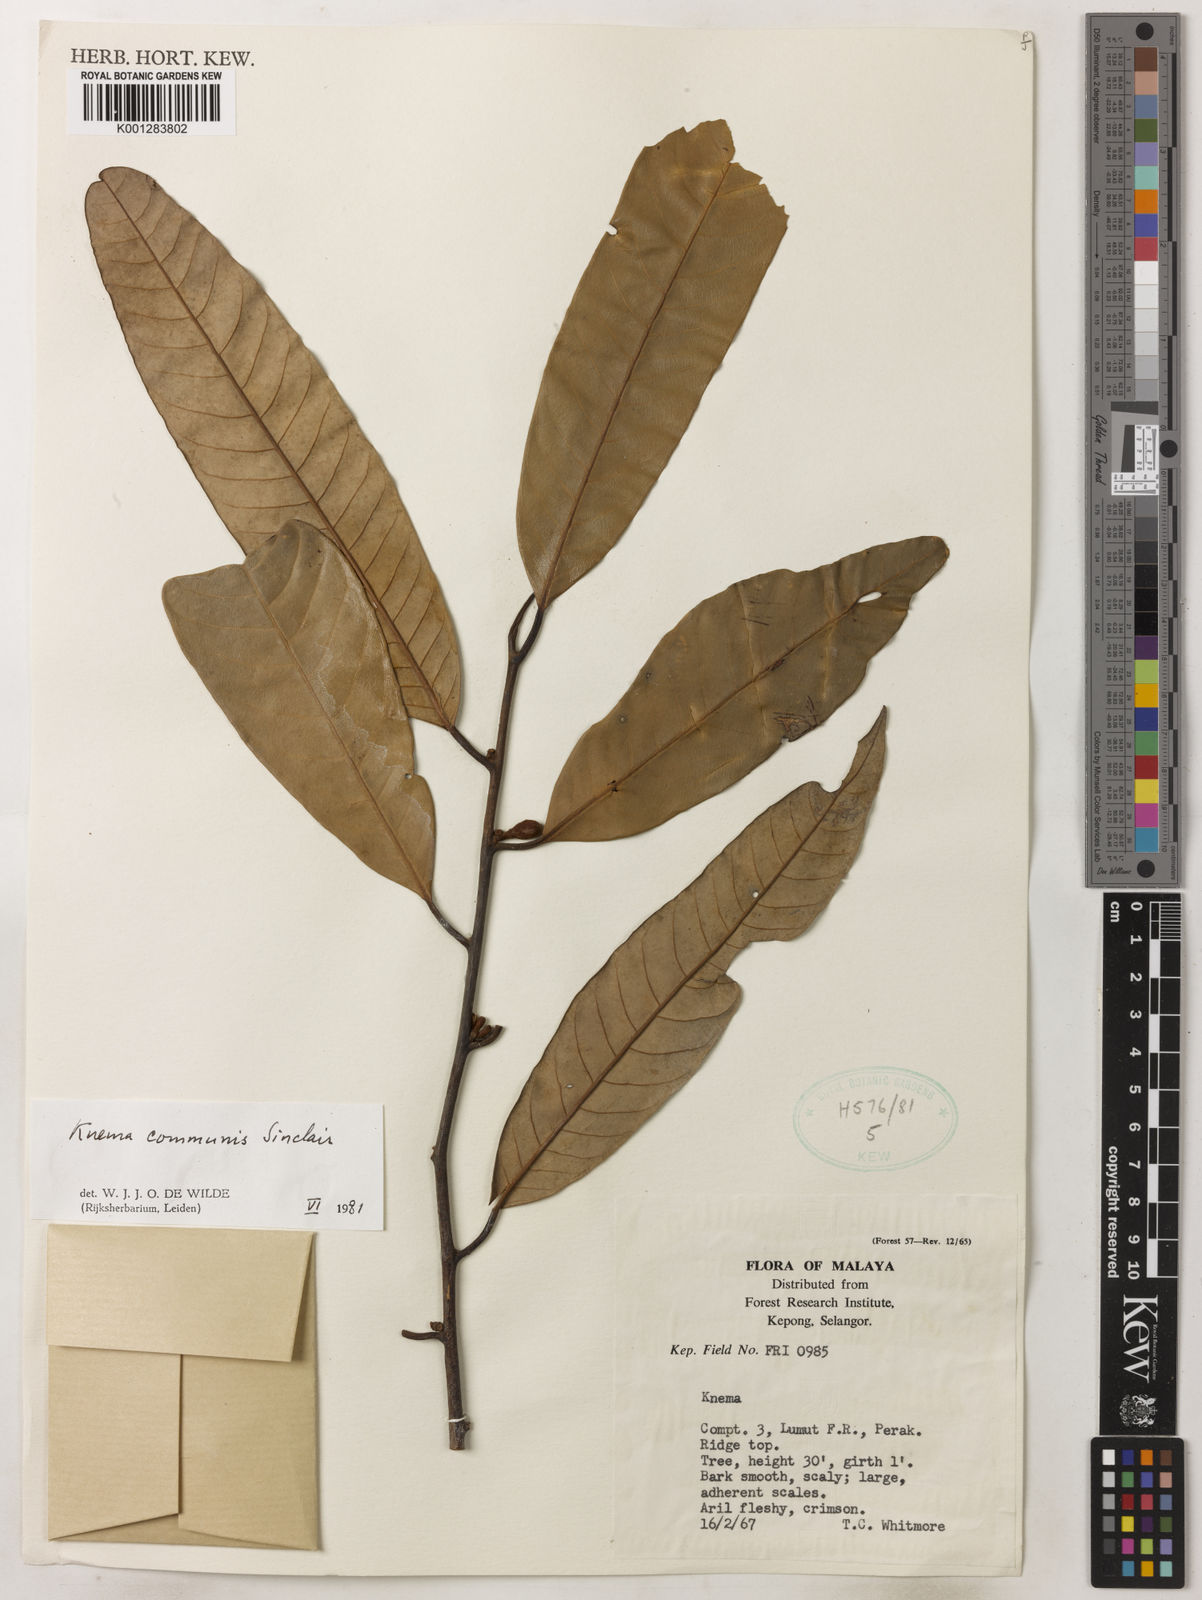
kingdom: Plantae
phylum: Tracheophyta
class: Magnoliopsida
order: Magnoliales
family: Myristicaceae
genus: Knema
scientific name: Knema communis
